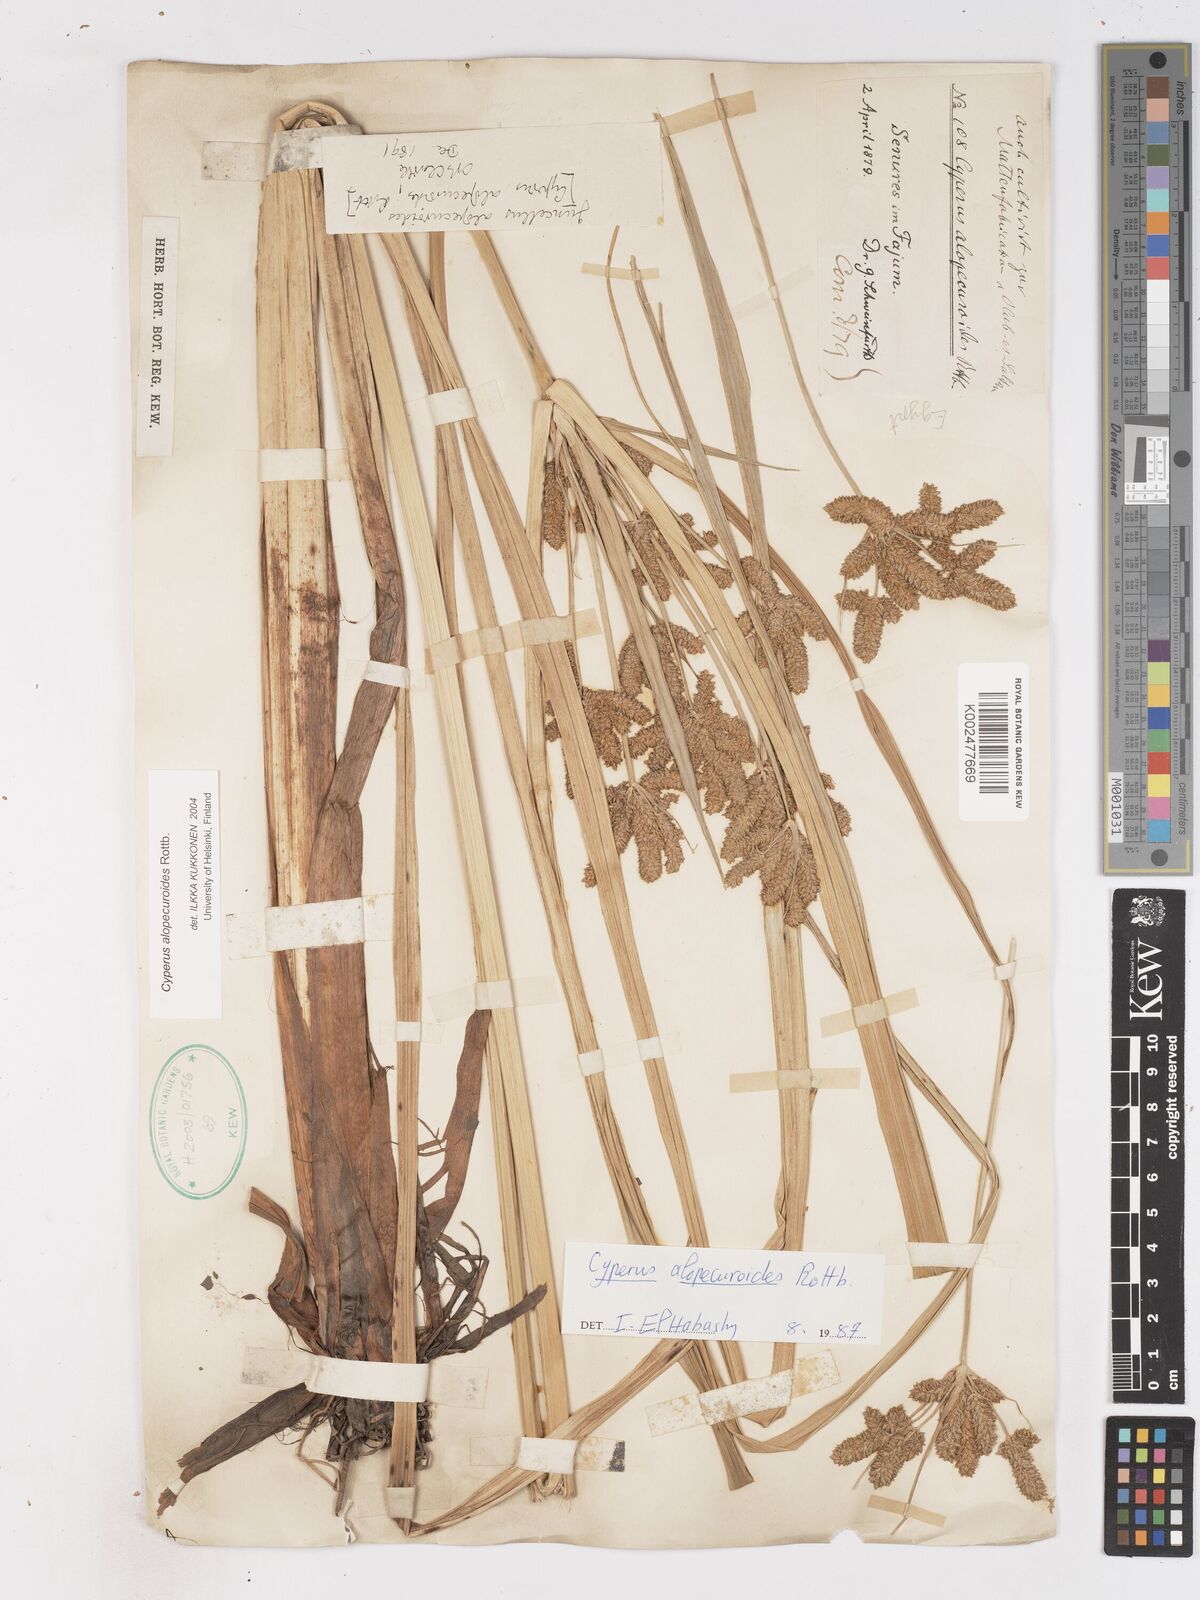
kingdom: Plantae
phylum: Tracheophyta
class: Liliopsida
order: Poales
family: Cyperaceae
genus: Cyperus
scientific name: Cyperus alopecuroides
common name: Foxtail flatsedge
